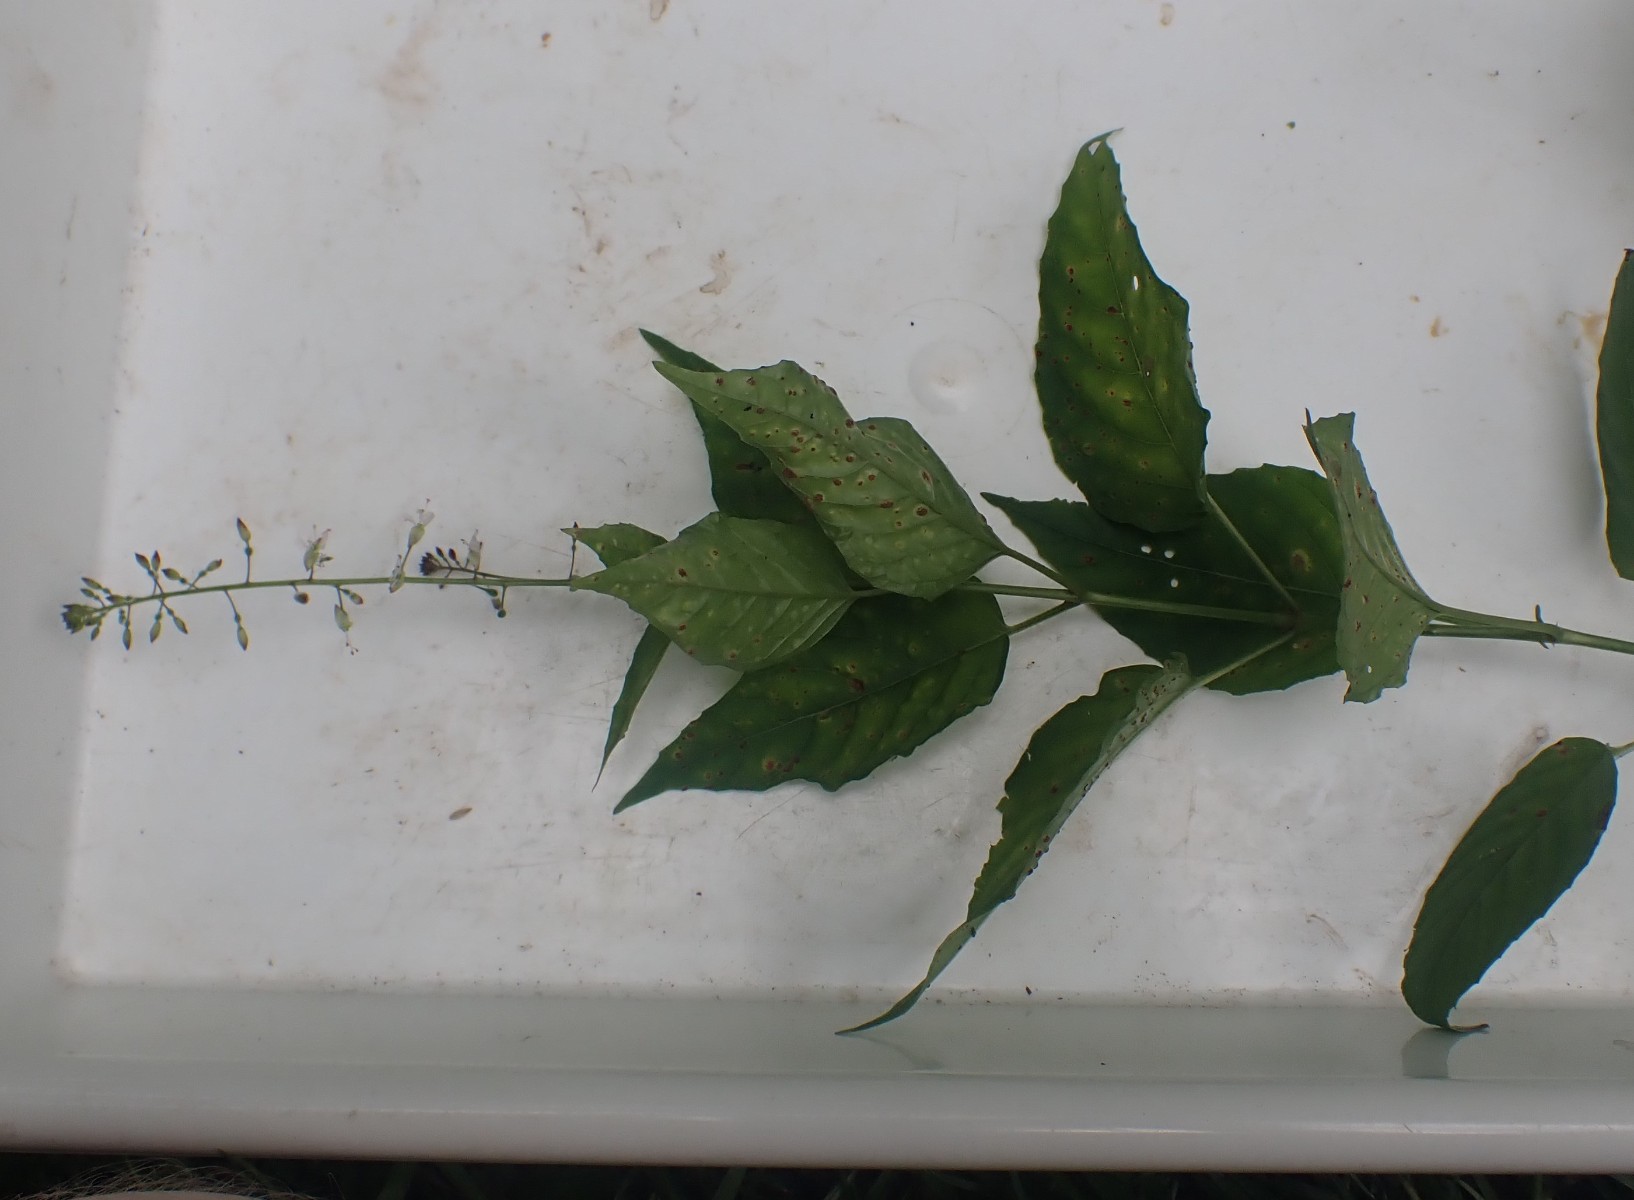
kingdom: Fungi
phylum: Basidiomycota
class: Pucciniomycetes
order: Pucciniales
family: Pucciniaceae
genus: Puccinia
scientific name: Puccinia circaeae
